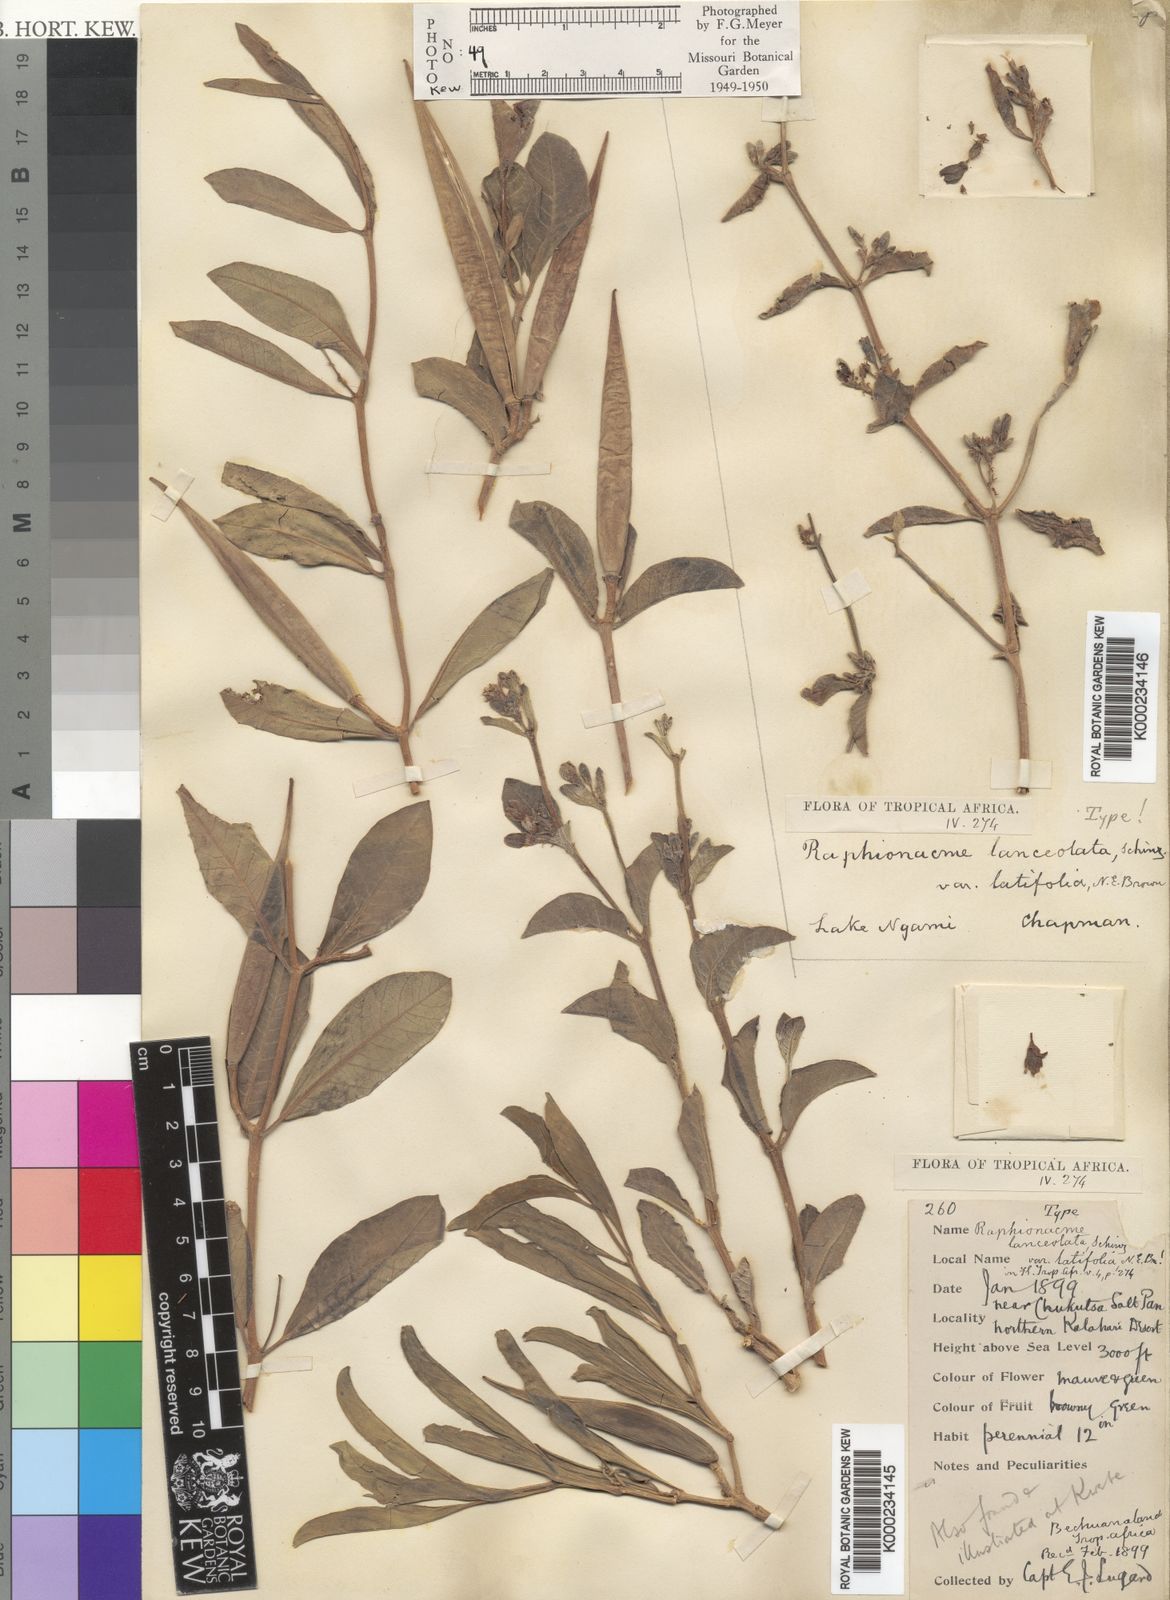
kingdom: Plantae
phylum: Tracheophyta
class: Magnoliopsida
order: Gentianales
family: Apocynaceae
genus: Raphionacme
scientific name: Raphionacme lanceolata
